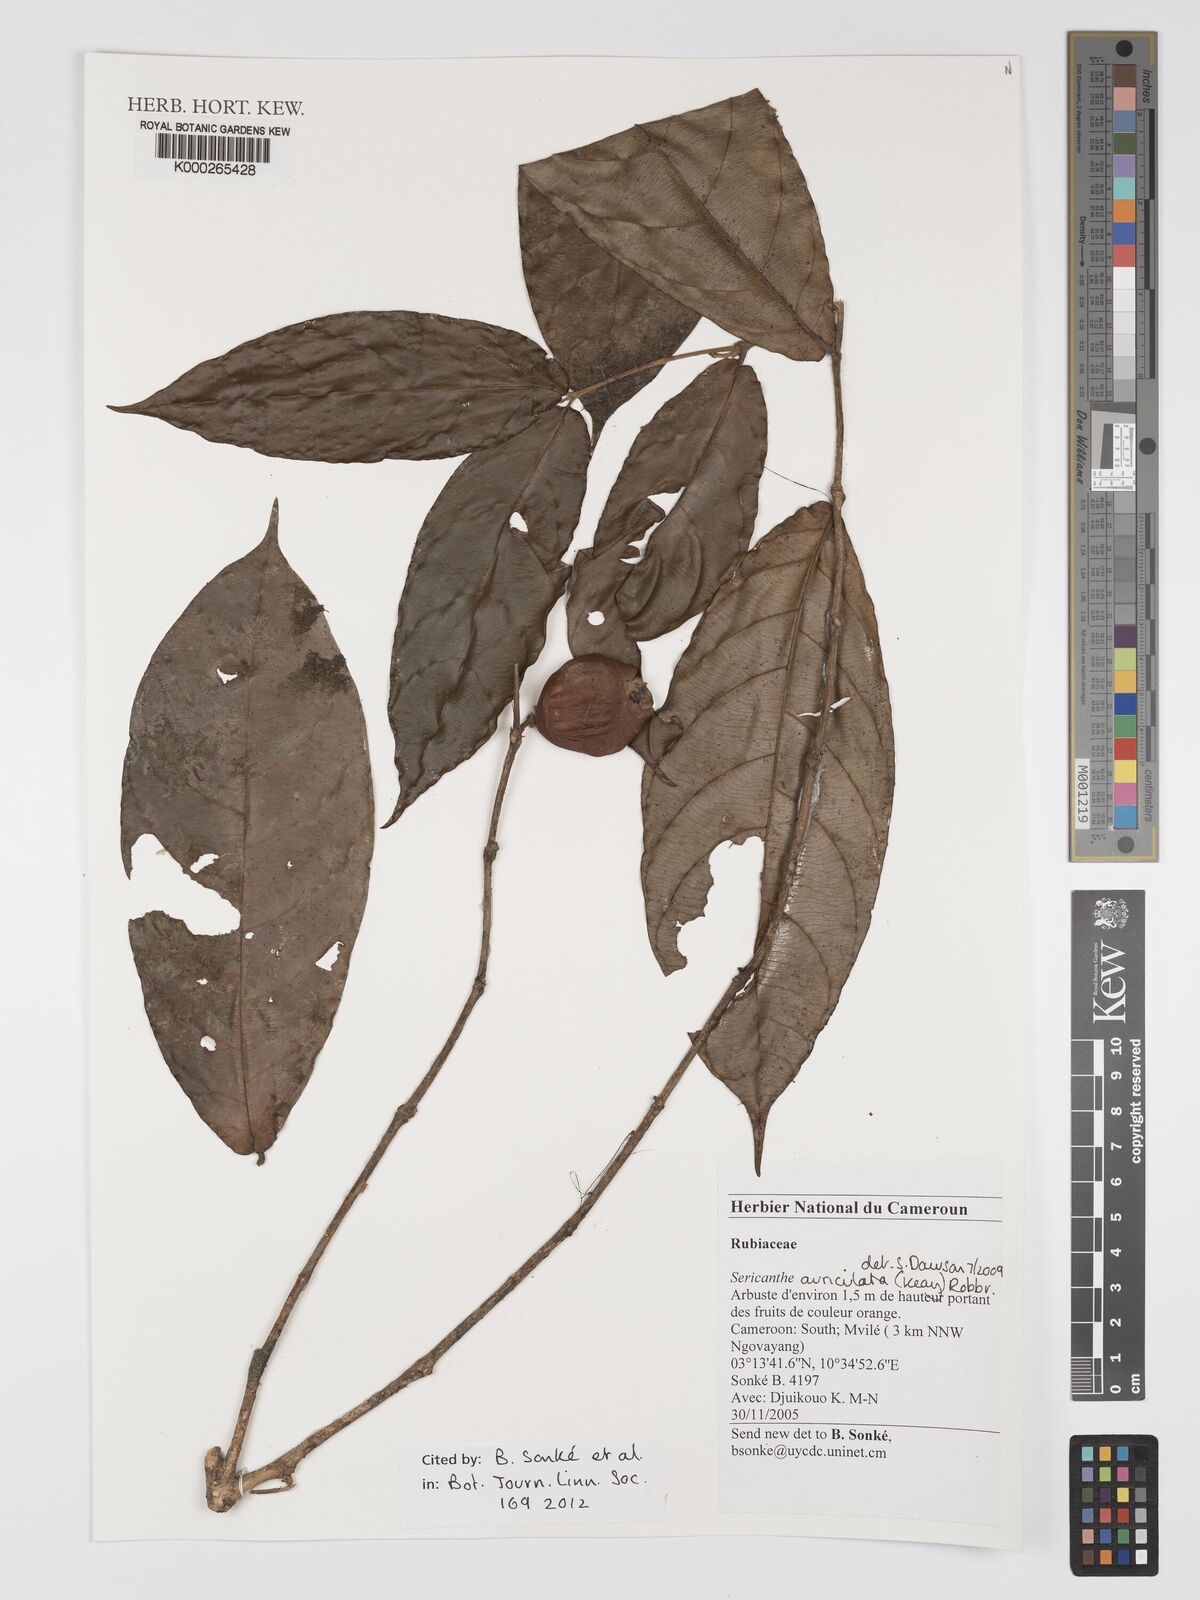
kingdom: Plantae
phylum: Tracheophyta
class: Magnoliopsida
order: Gentianales
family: Rubiaceae
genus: Sericanthe
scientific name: Sericanthe auriculata
